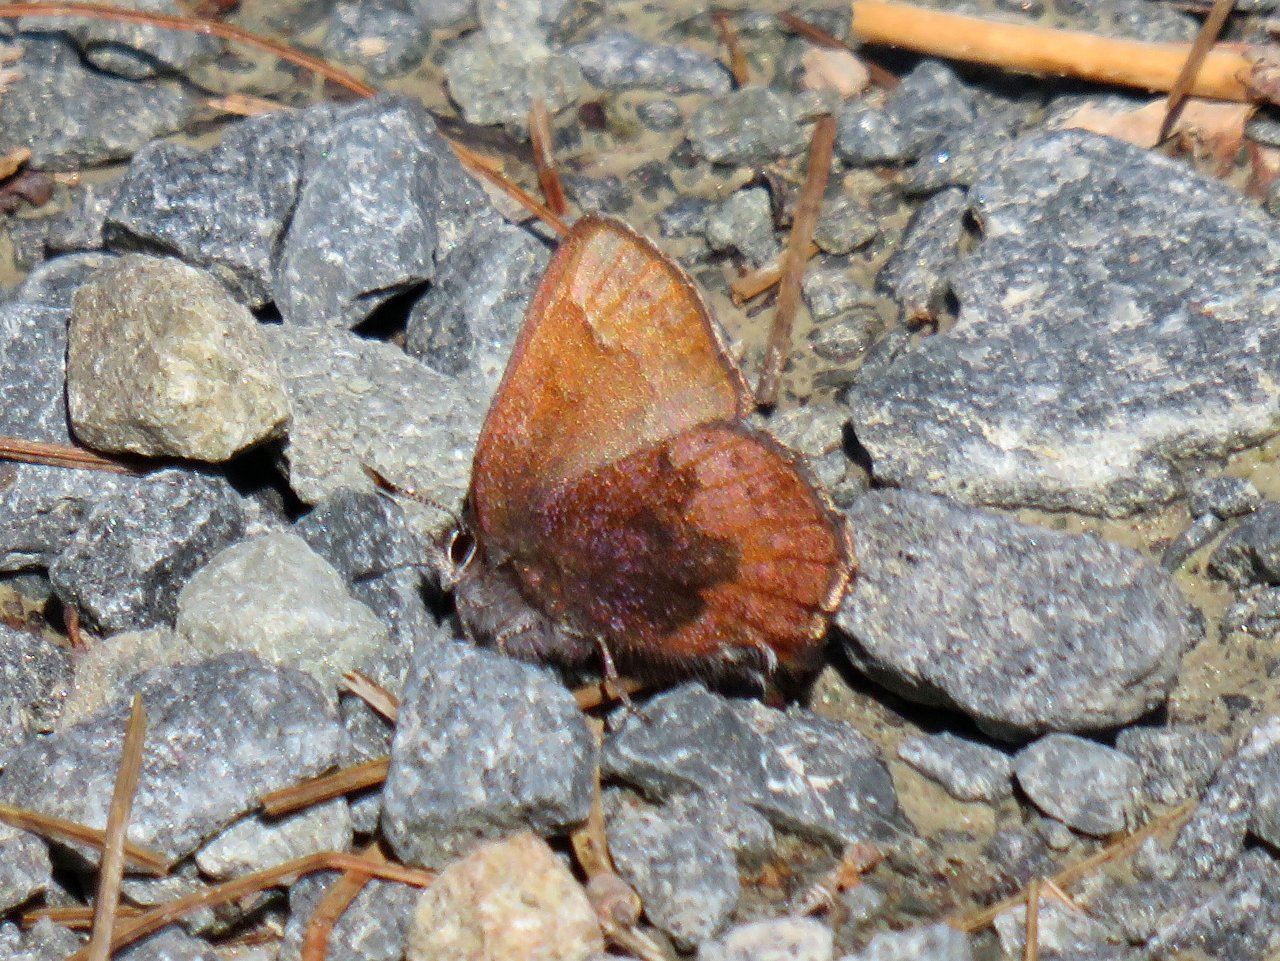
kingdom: Animalia
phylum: Arthropoda
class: Insecta
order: Lepidoptera
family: Lycaenidae
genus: Incisalia
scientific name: Incisalia irioides
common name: Brown Elfin
